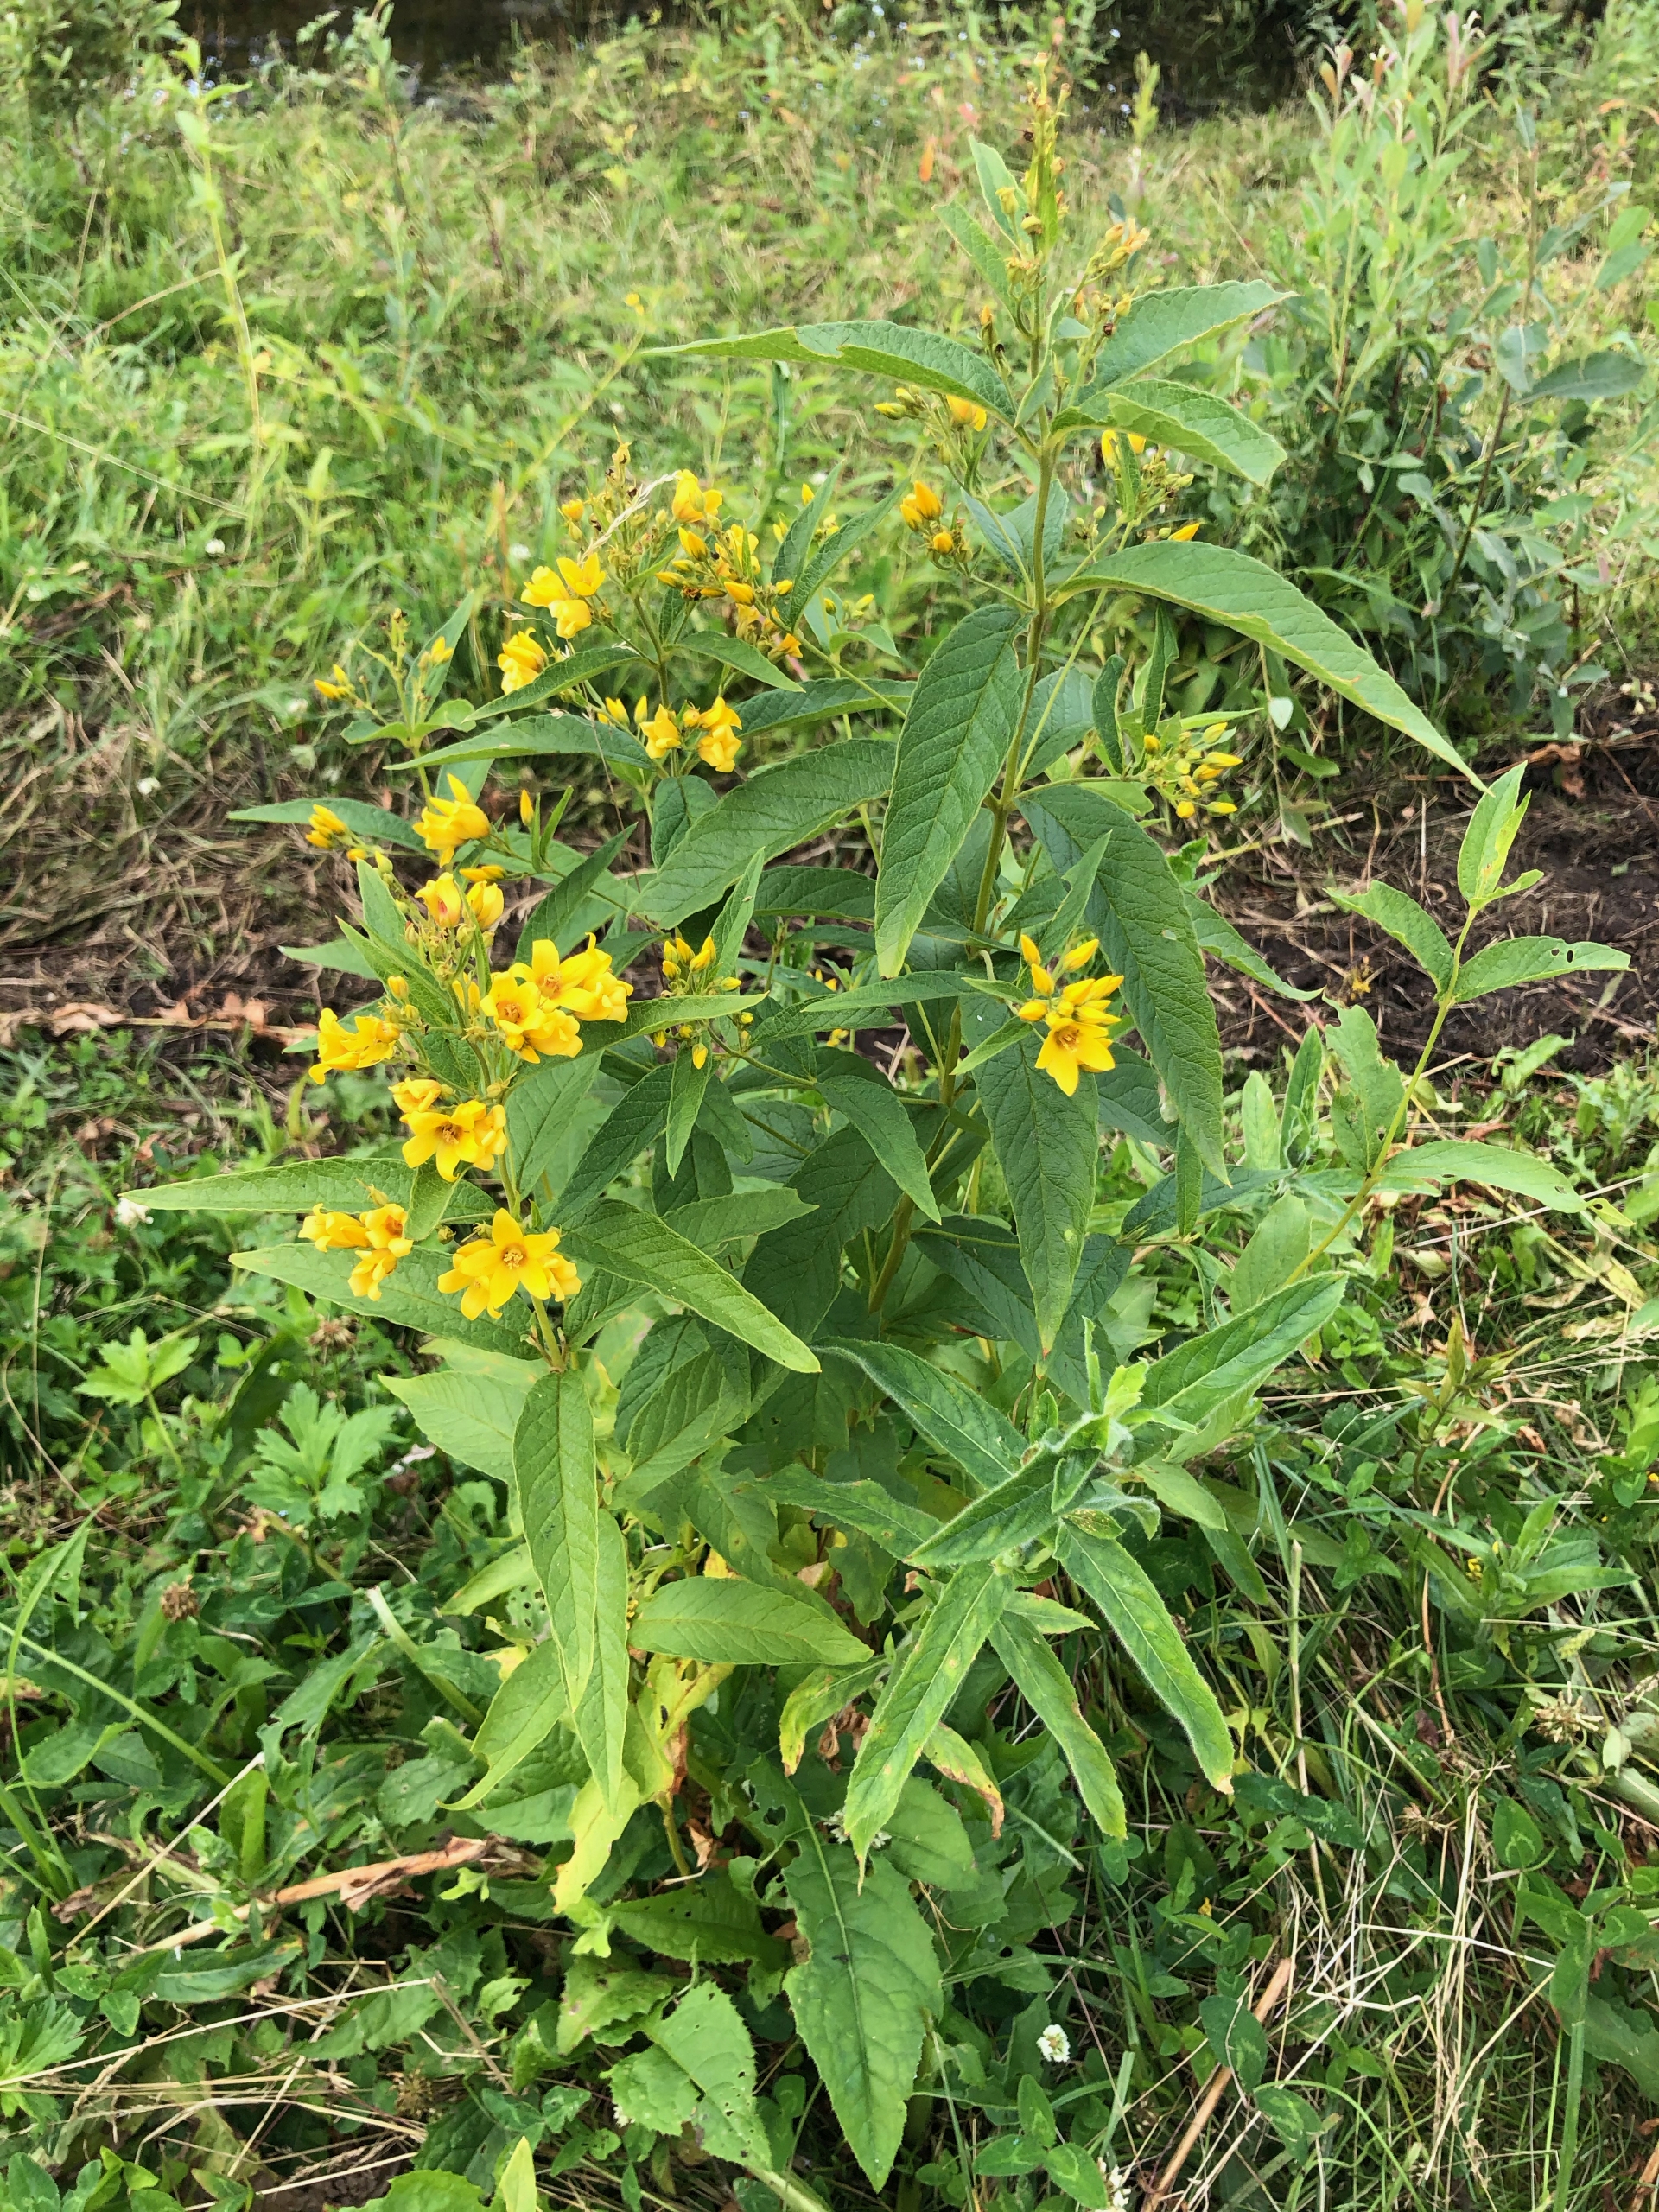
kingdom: Plantae
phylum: Tracheophyta
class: Magnoliopsida
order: Ericales
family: Primulaceae
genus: Lysimachia
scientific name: Lysimachia vulgaris
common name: Almindelig fredløs
